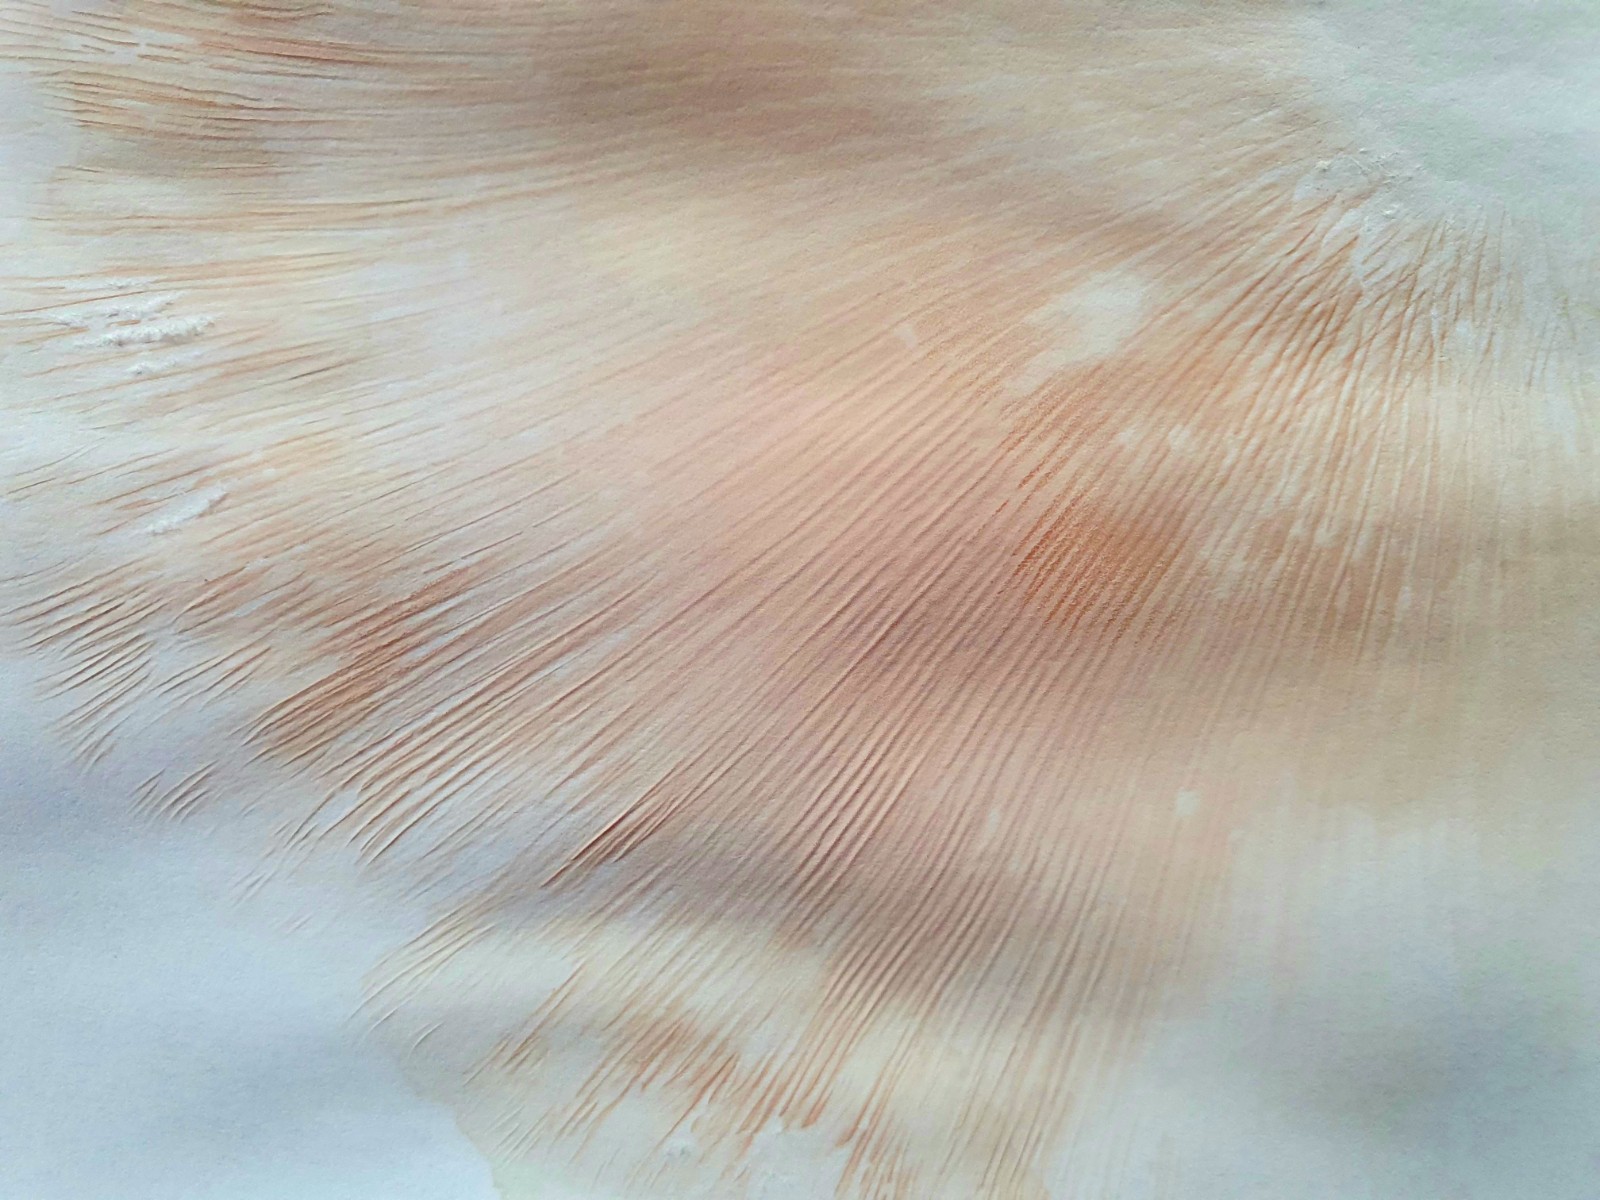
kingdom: Fungi
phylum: Basidiomycota
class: Agaricomycetes
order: Agaricales
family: Tricholomataceae
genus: Lepista
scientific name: Lepista personata
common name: bleg hekseringshat
